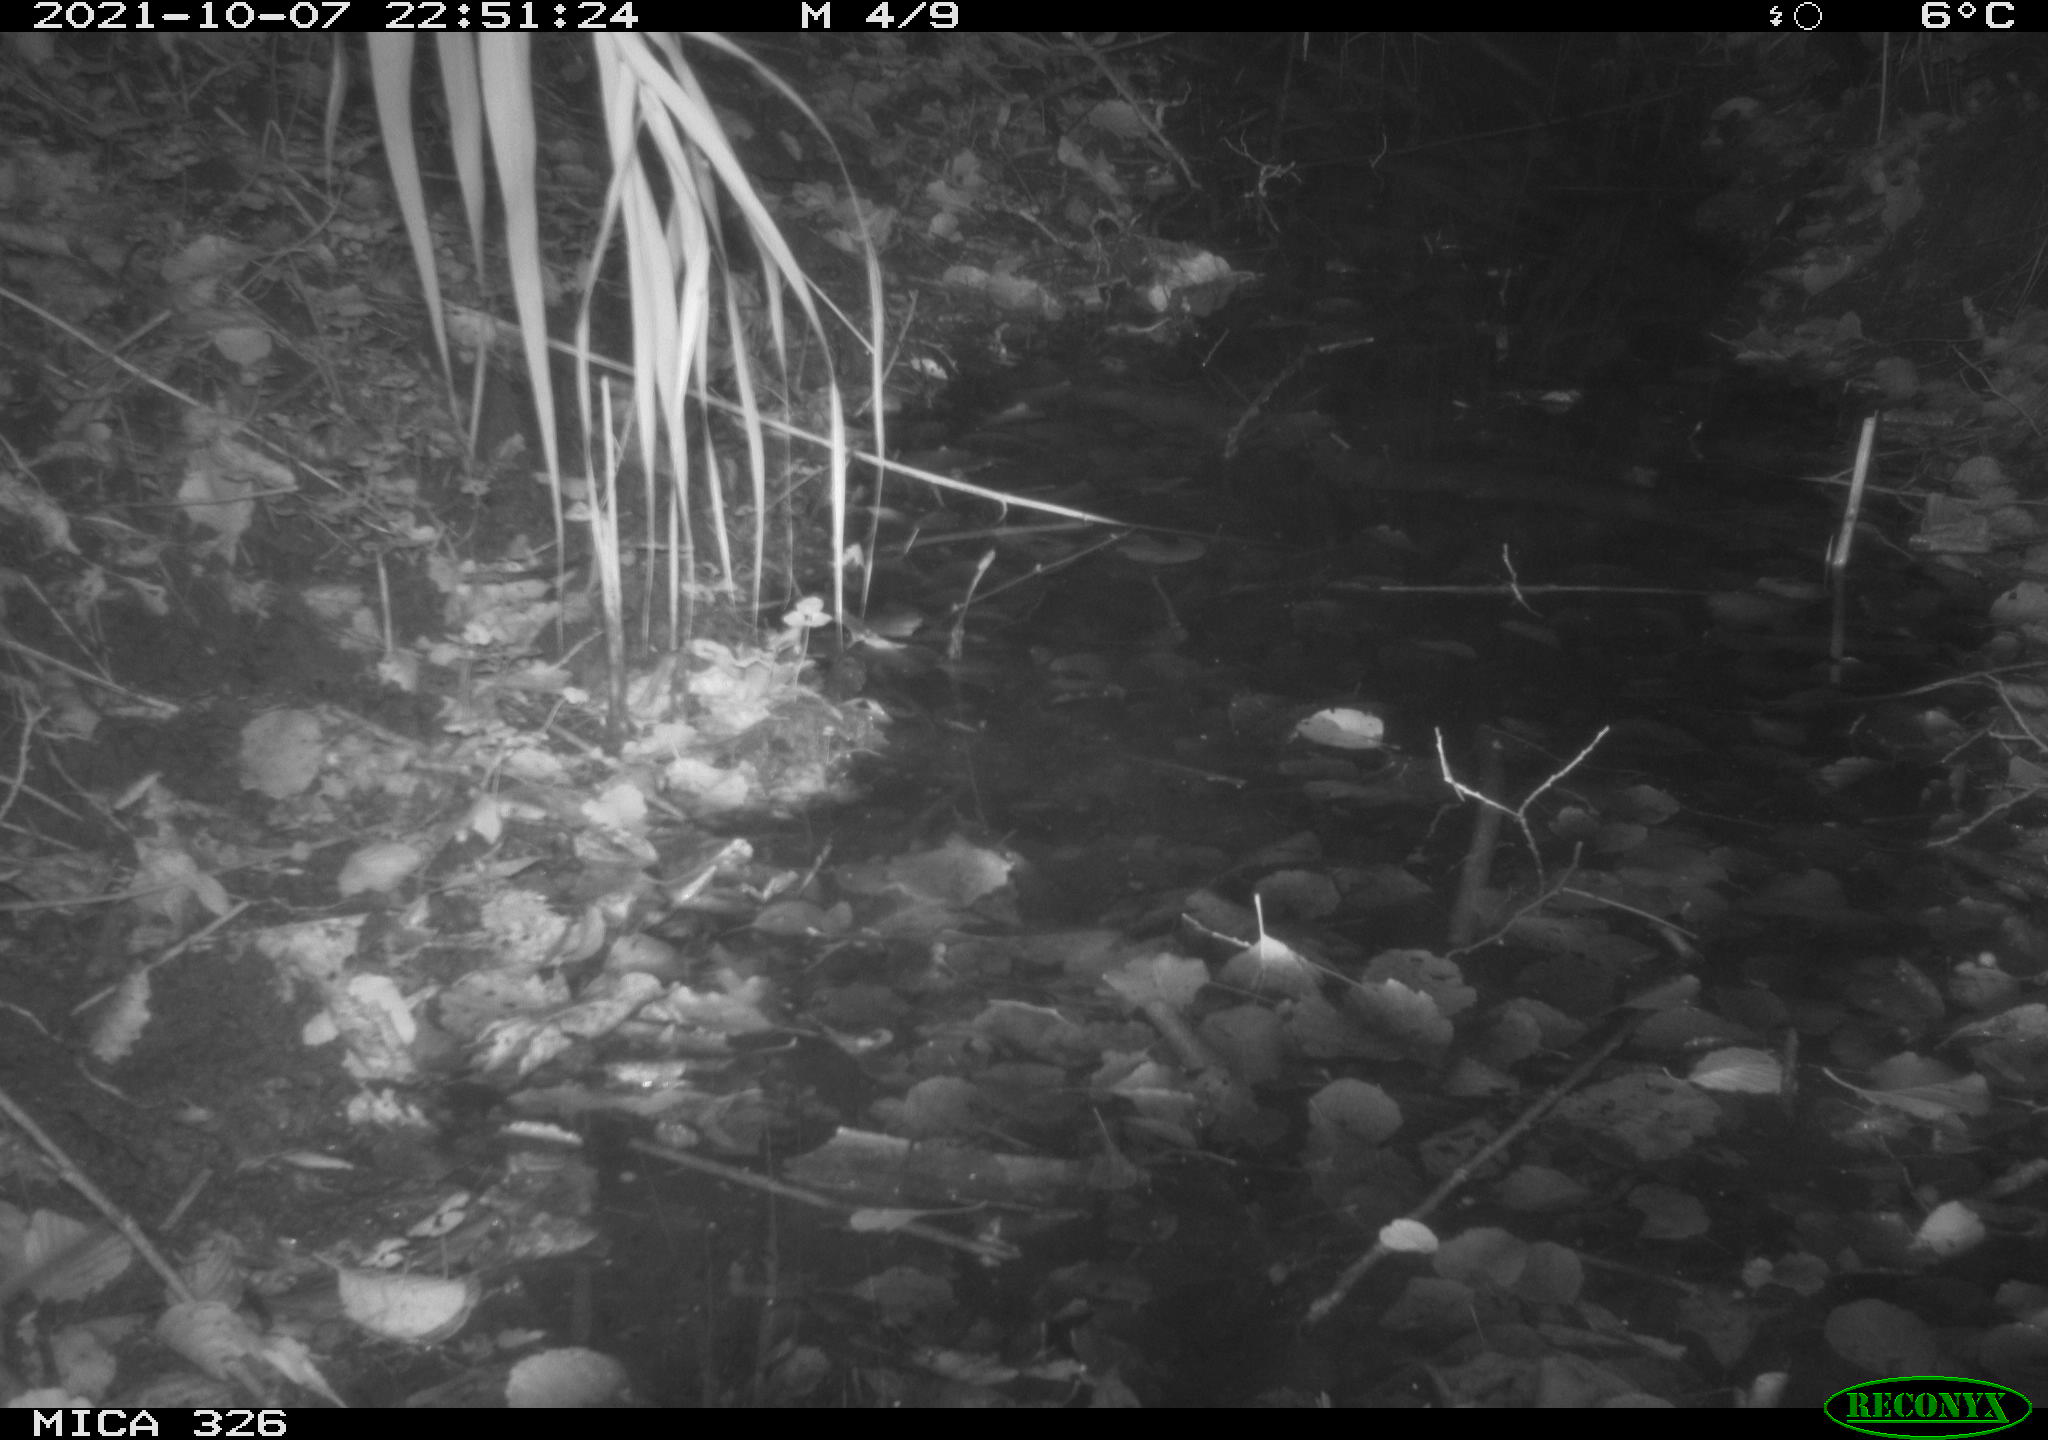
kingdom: Animalia
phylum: Chordata
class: Mammalia
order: Rodentia
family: Muridae
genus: Rattus
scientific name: Rattus norvegicus
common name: Brown rat
